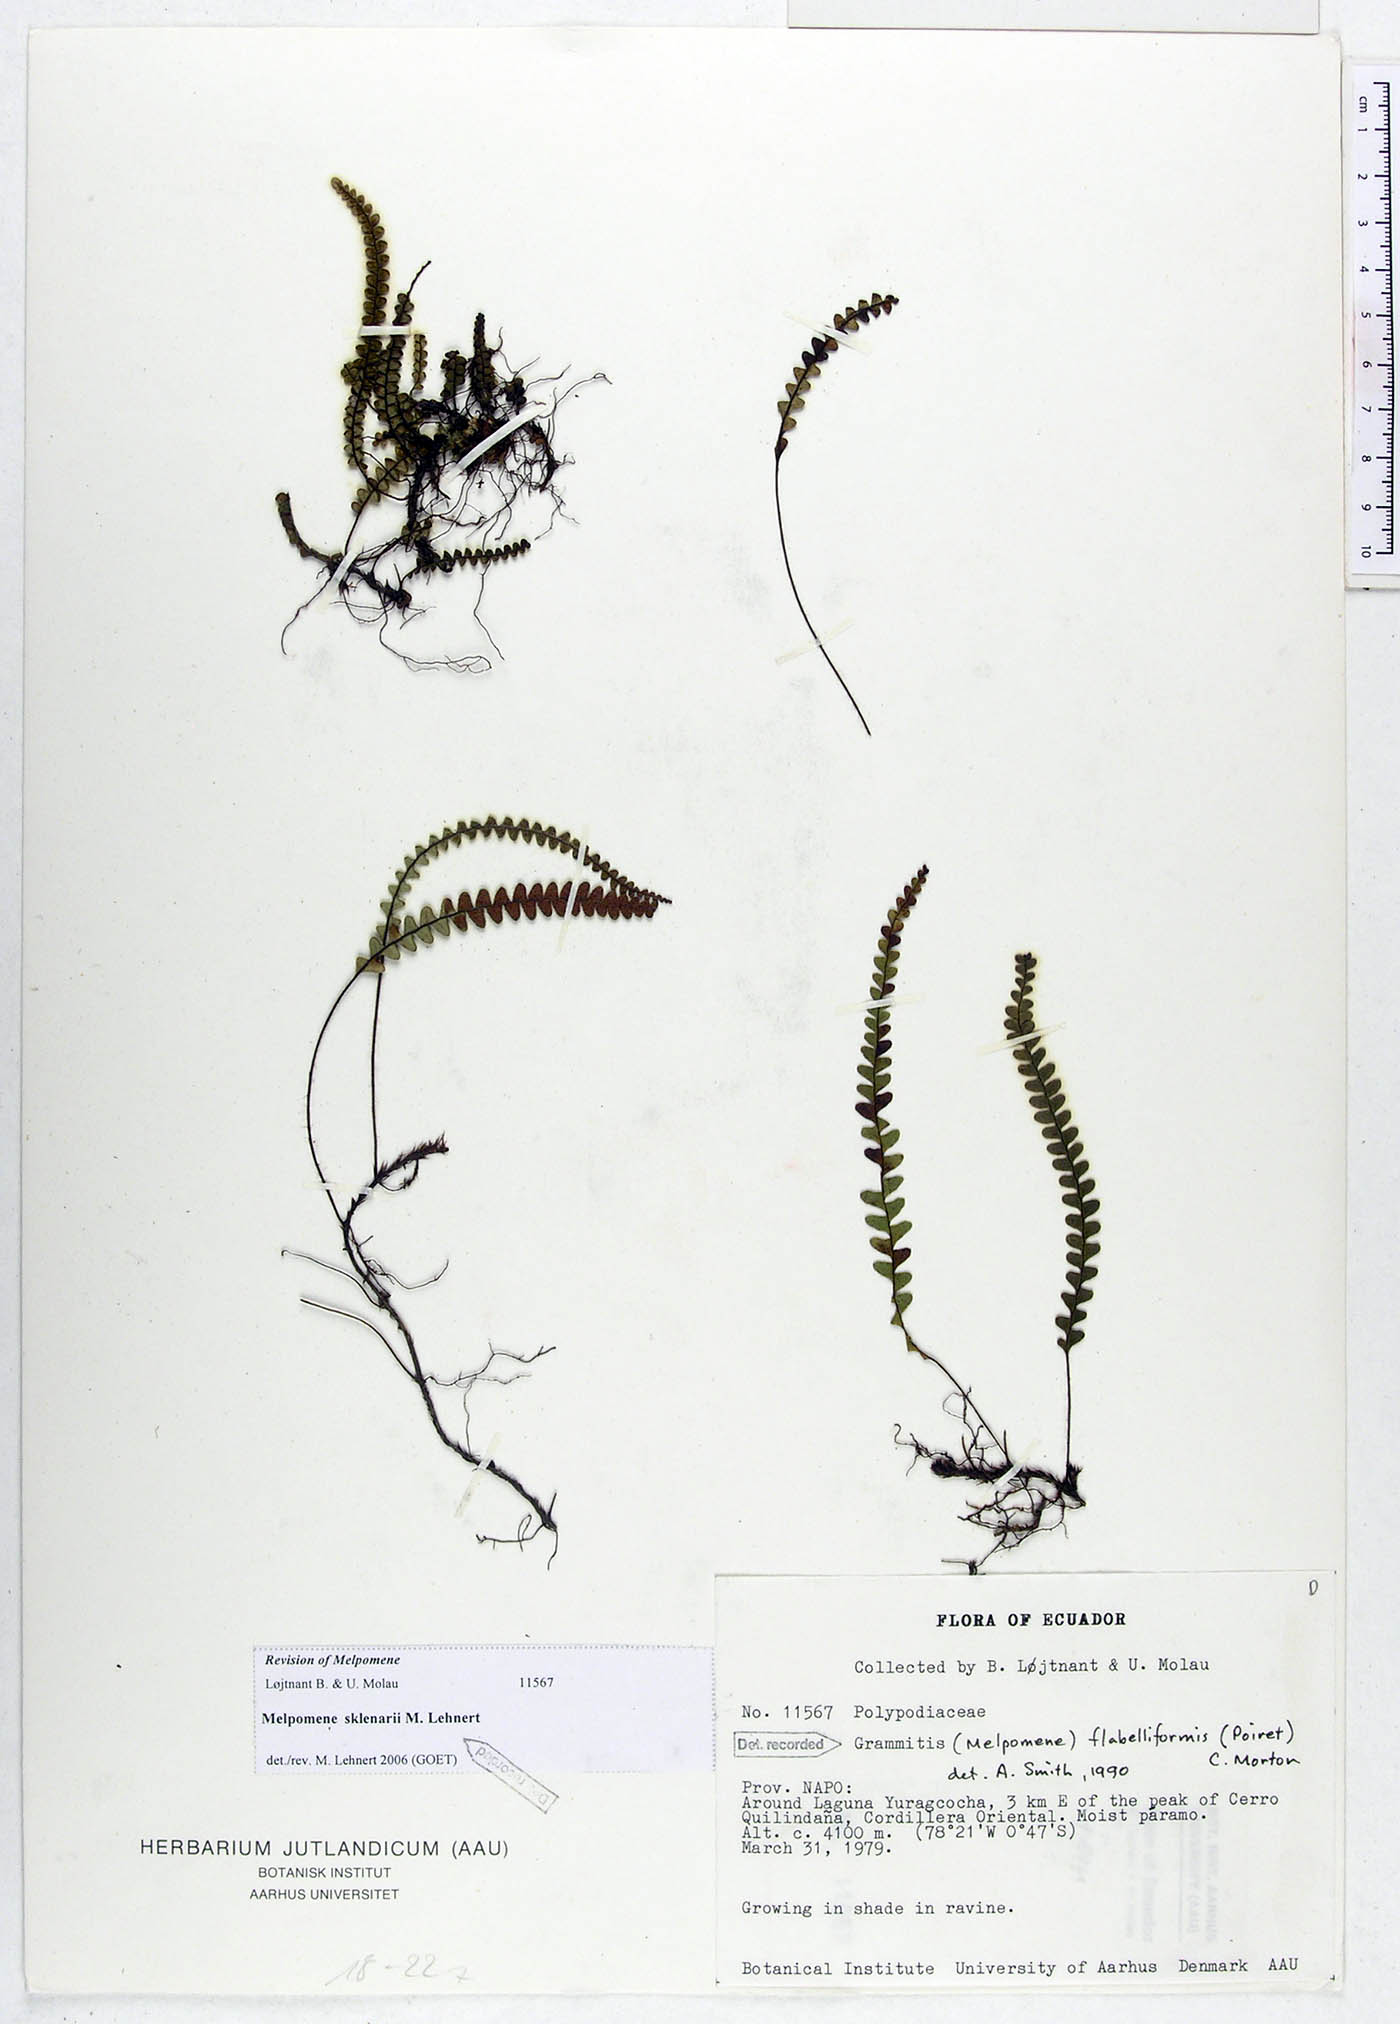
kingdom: Plantae
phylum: Tracheophyta
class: Polypodiopsida
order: Polypodiales
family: Polypodiaceae
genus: Melpomene
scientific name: Melpomene sklenarii
